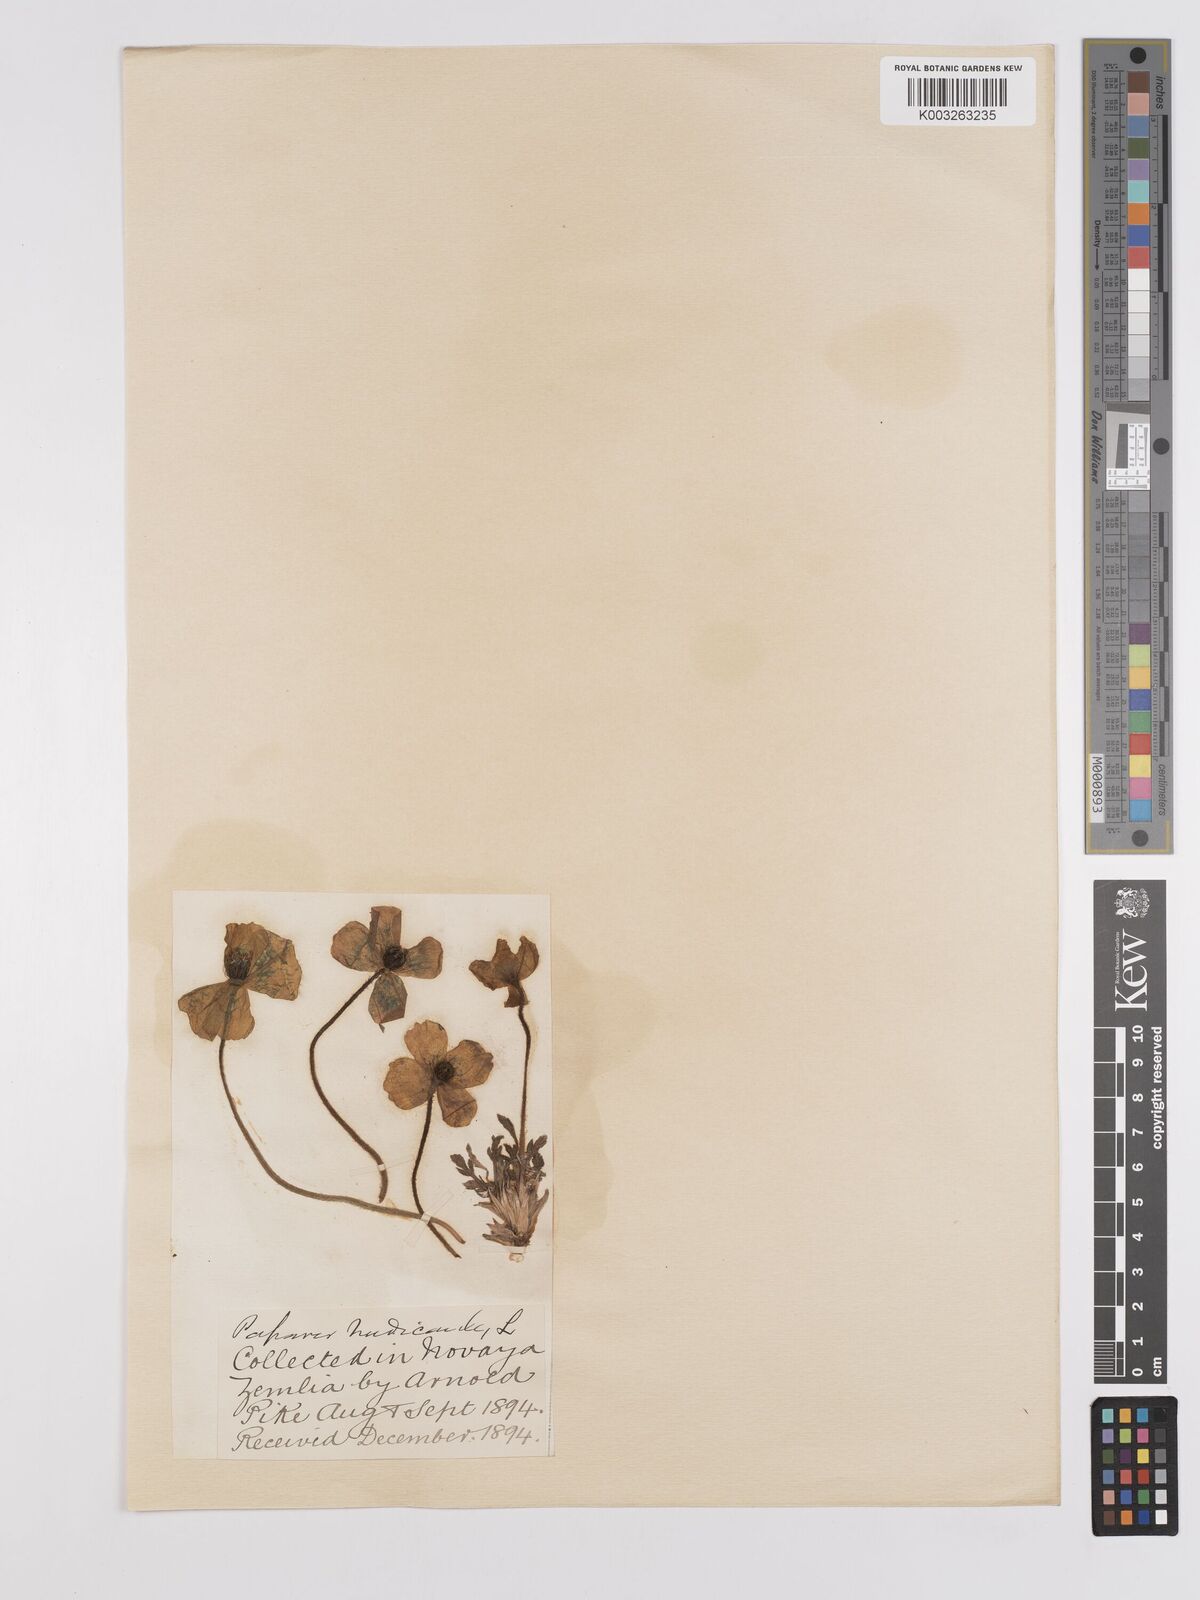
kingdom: Plantae
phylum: Tracheophyta
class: Magnoliopsida
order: Ranunculales
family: Papaveraceae
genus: Papaver
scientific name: Papaver radicatum
